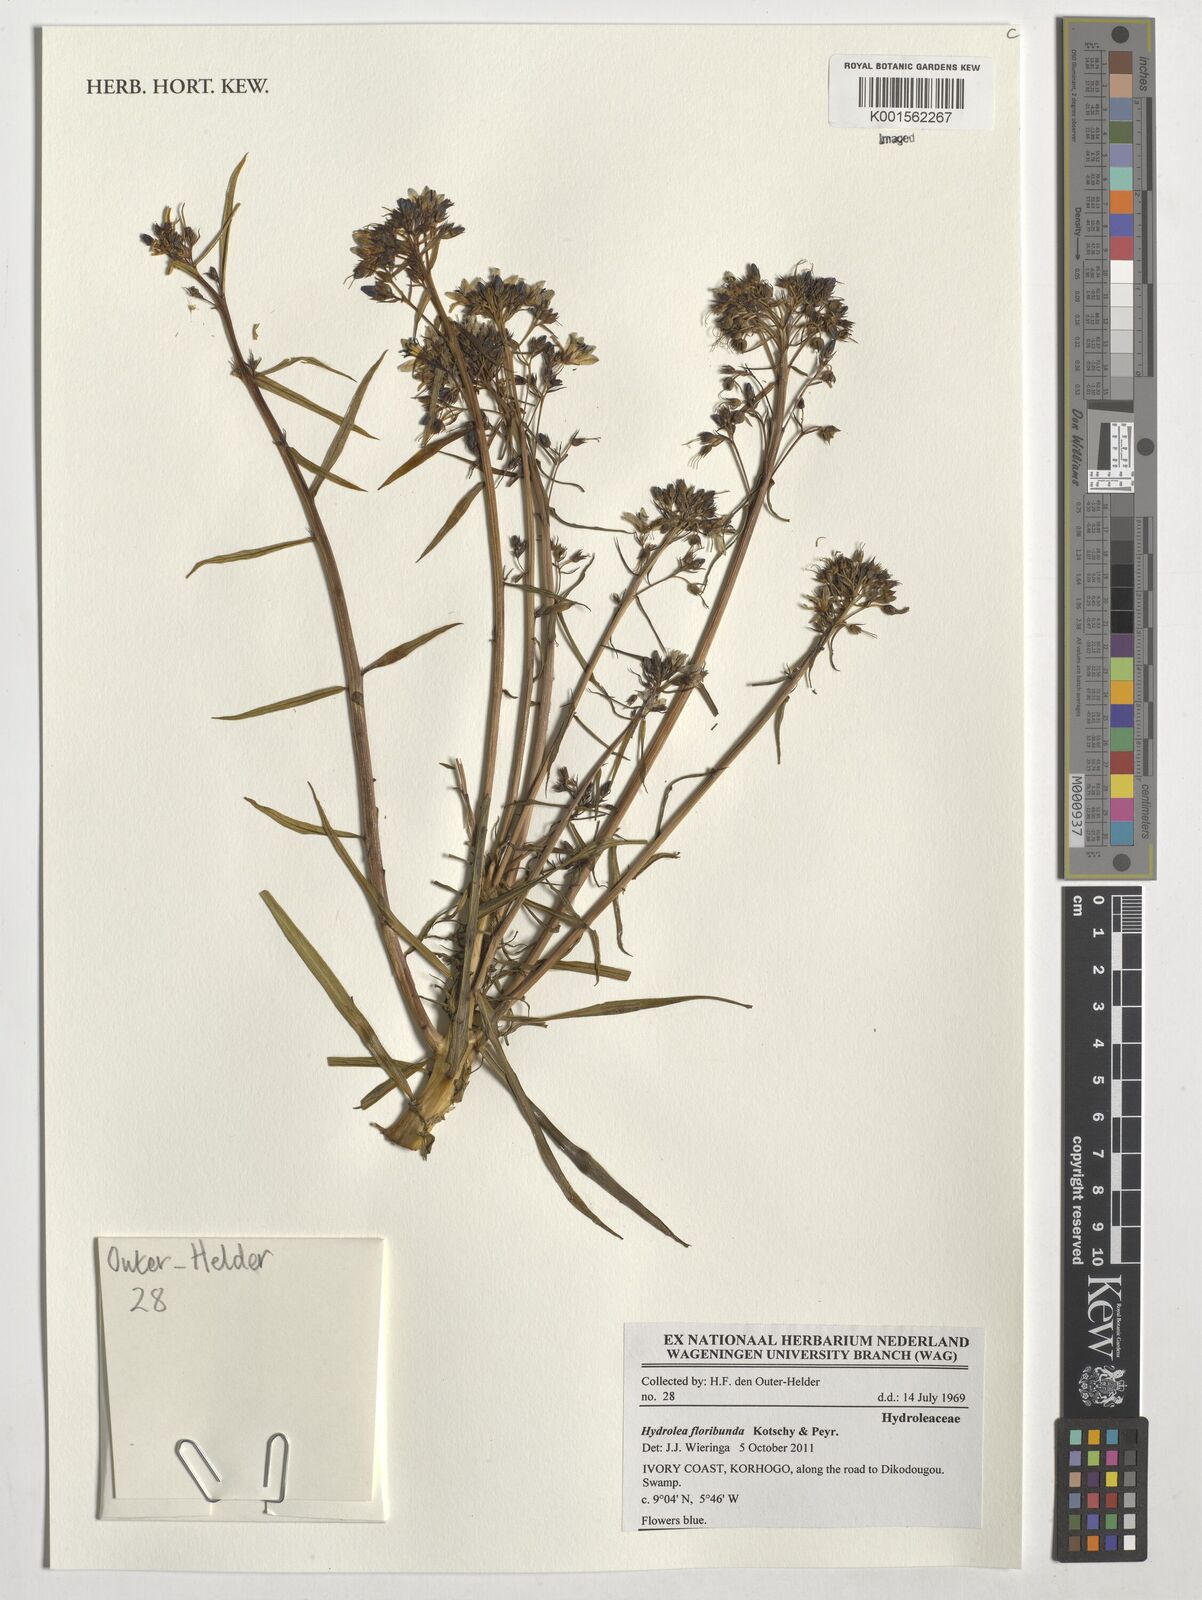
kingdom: Plantae
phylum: Tracheophyta
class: Magnoliopsida
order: Solanales
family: Hydroleaceae
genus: Hydrolea
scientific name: Hydrolea floribunda
